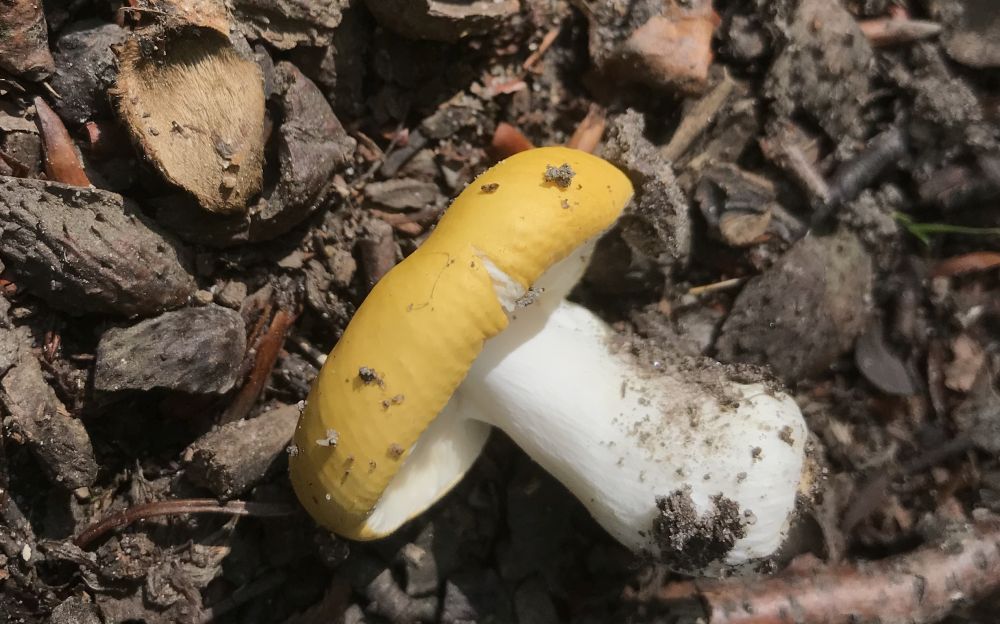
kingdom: Fungi
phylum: Basidiomycota
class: Agaricomycetes
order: Russulales
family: Russulaceae
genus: Russula
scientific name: Russula ochroleuca
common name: okkergul skørhat
